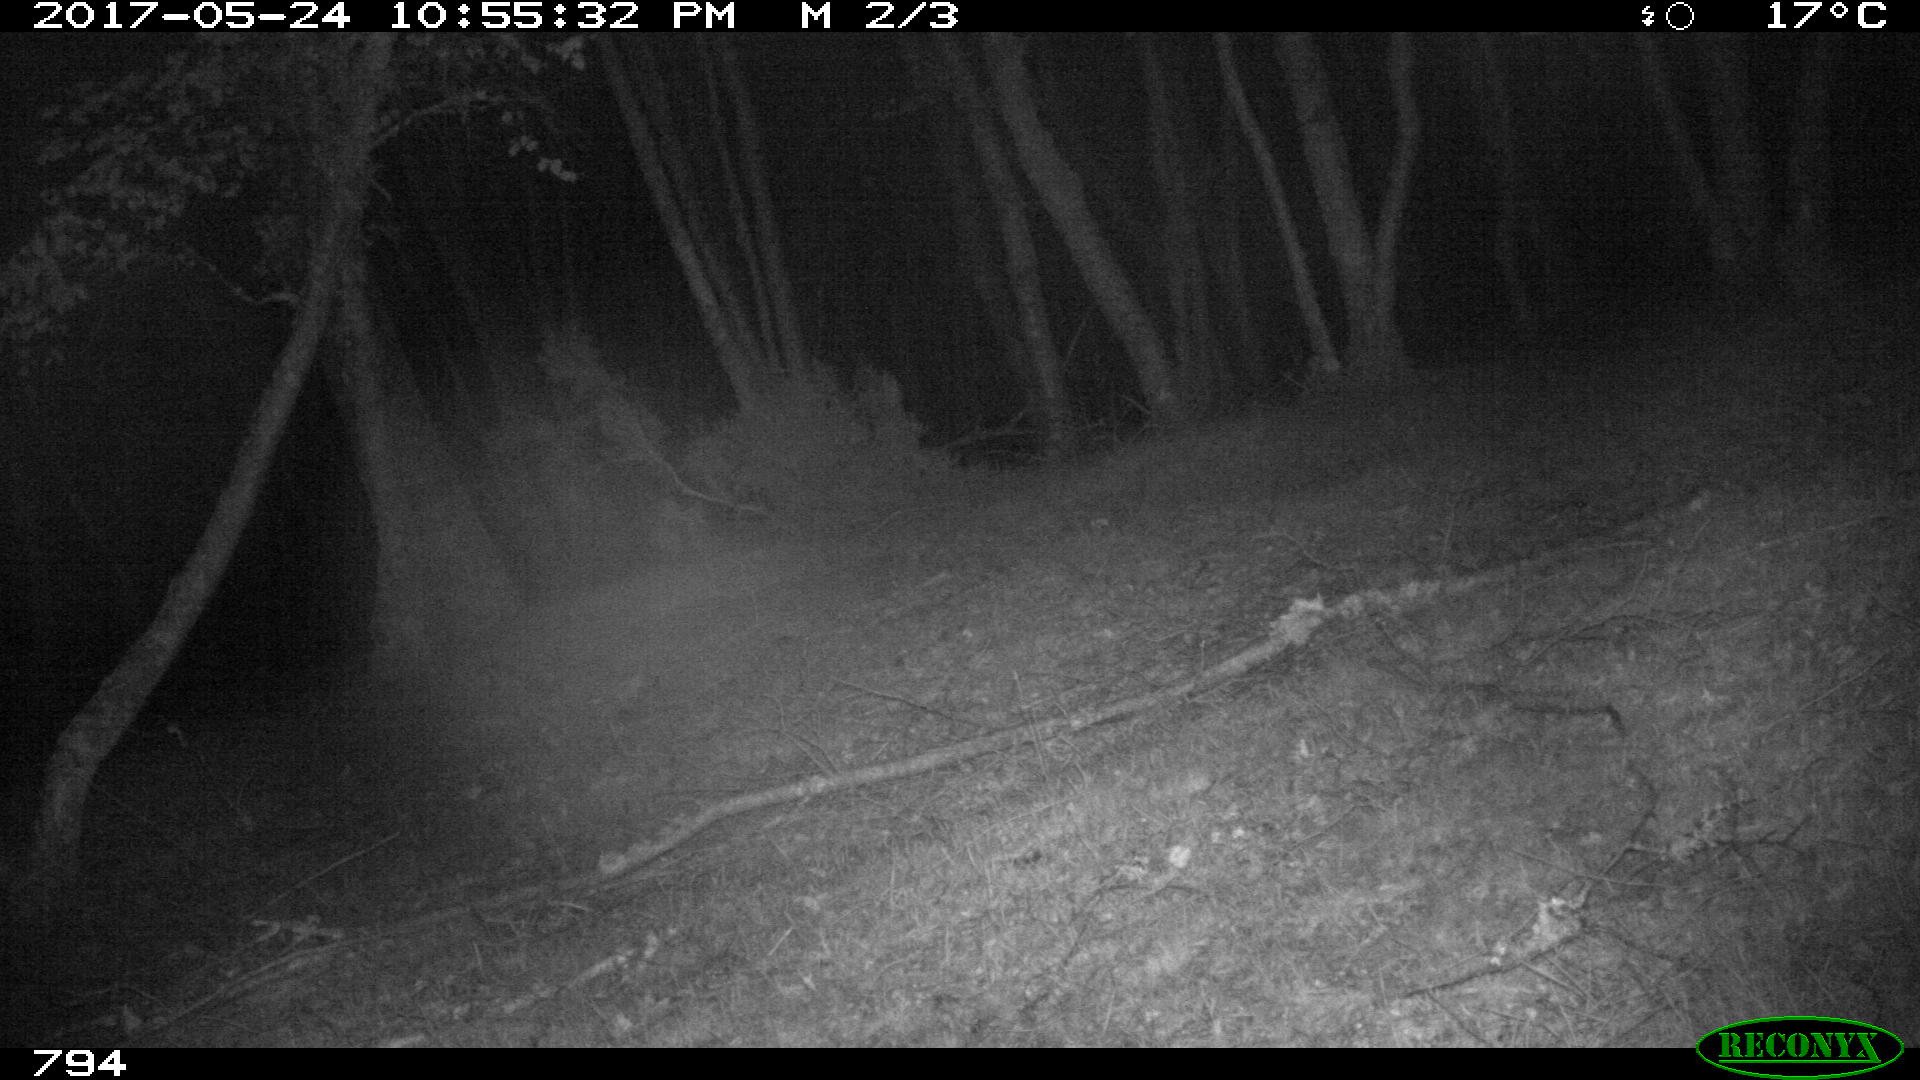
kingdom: Animalia
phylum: Chordata
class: Mammalia
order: Perissodactyla
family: Equidae
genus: Equus
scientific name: Equus caballus
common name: Horse
